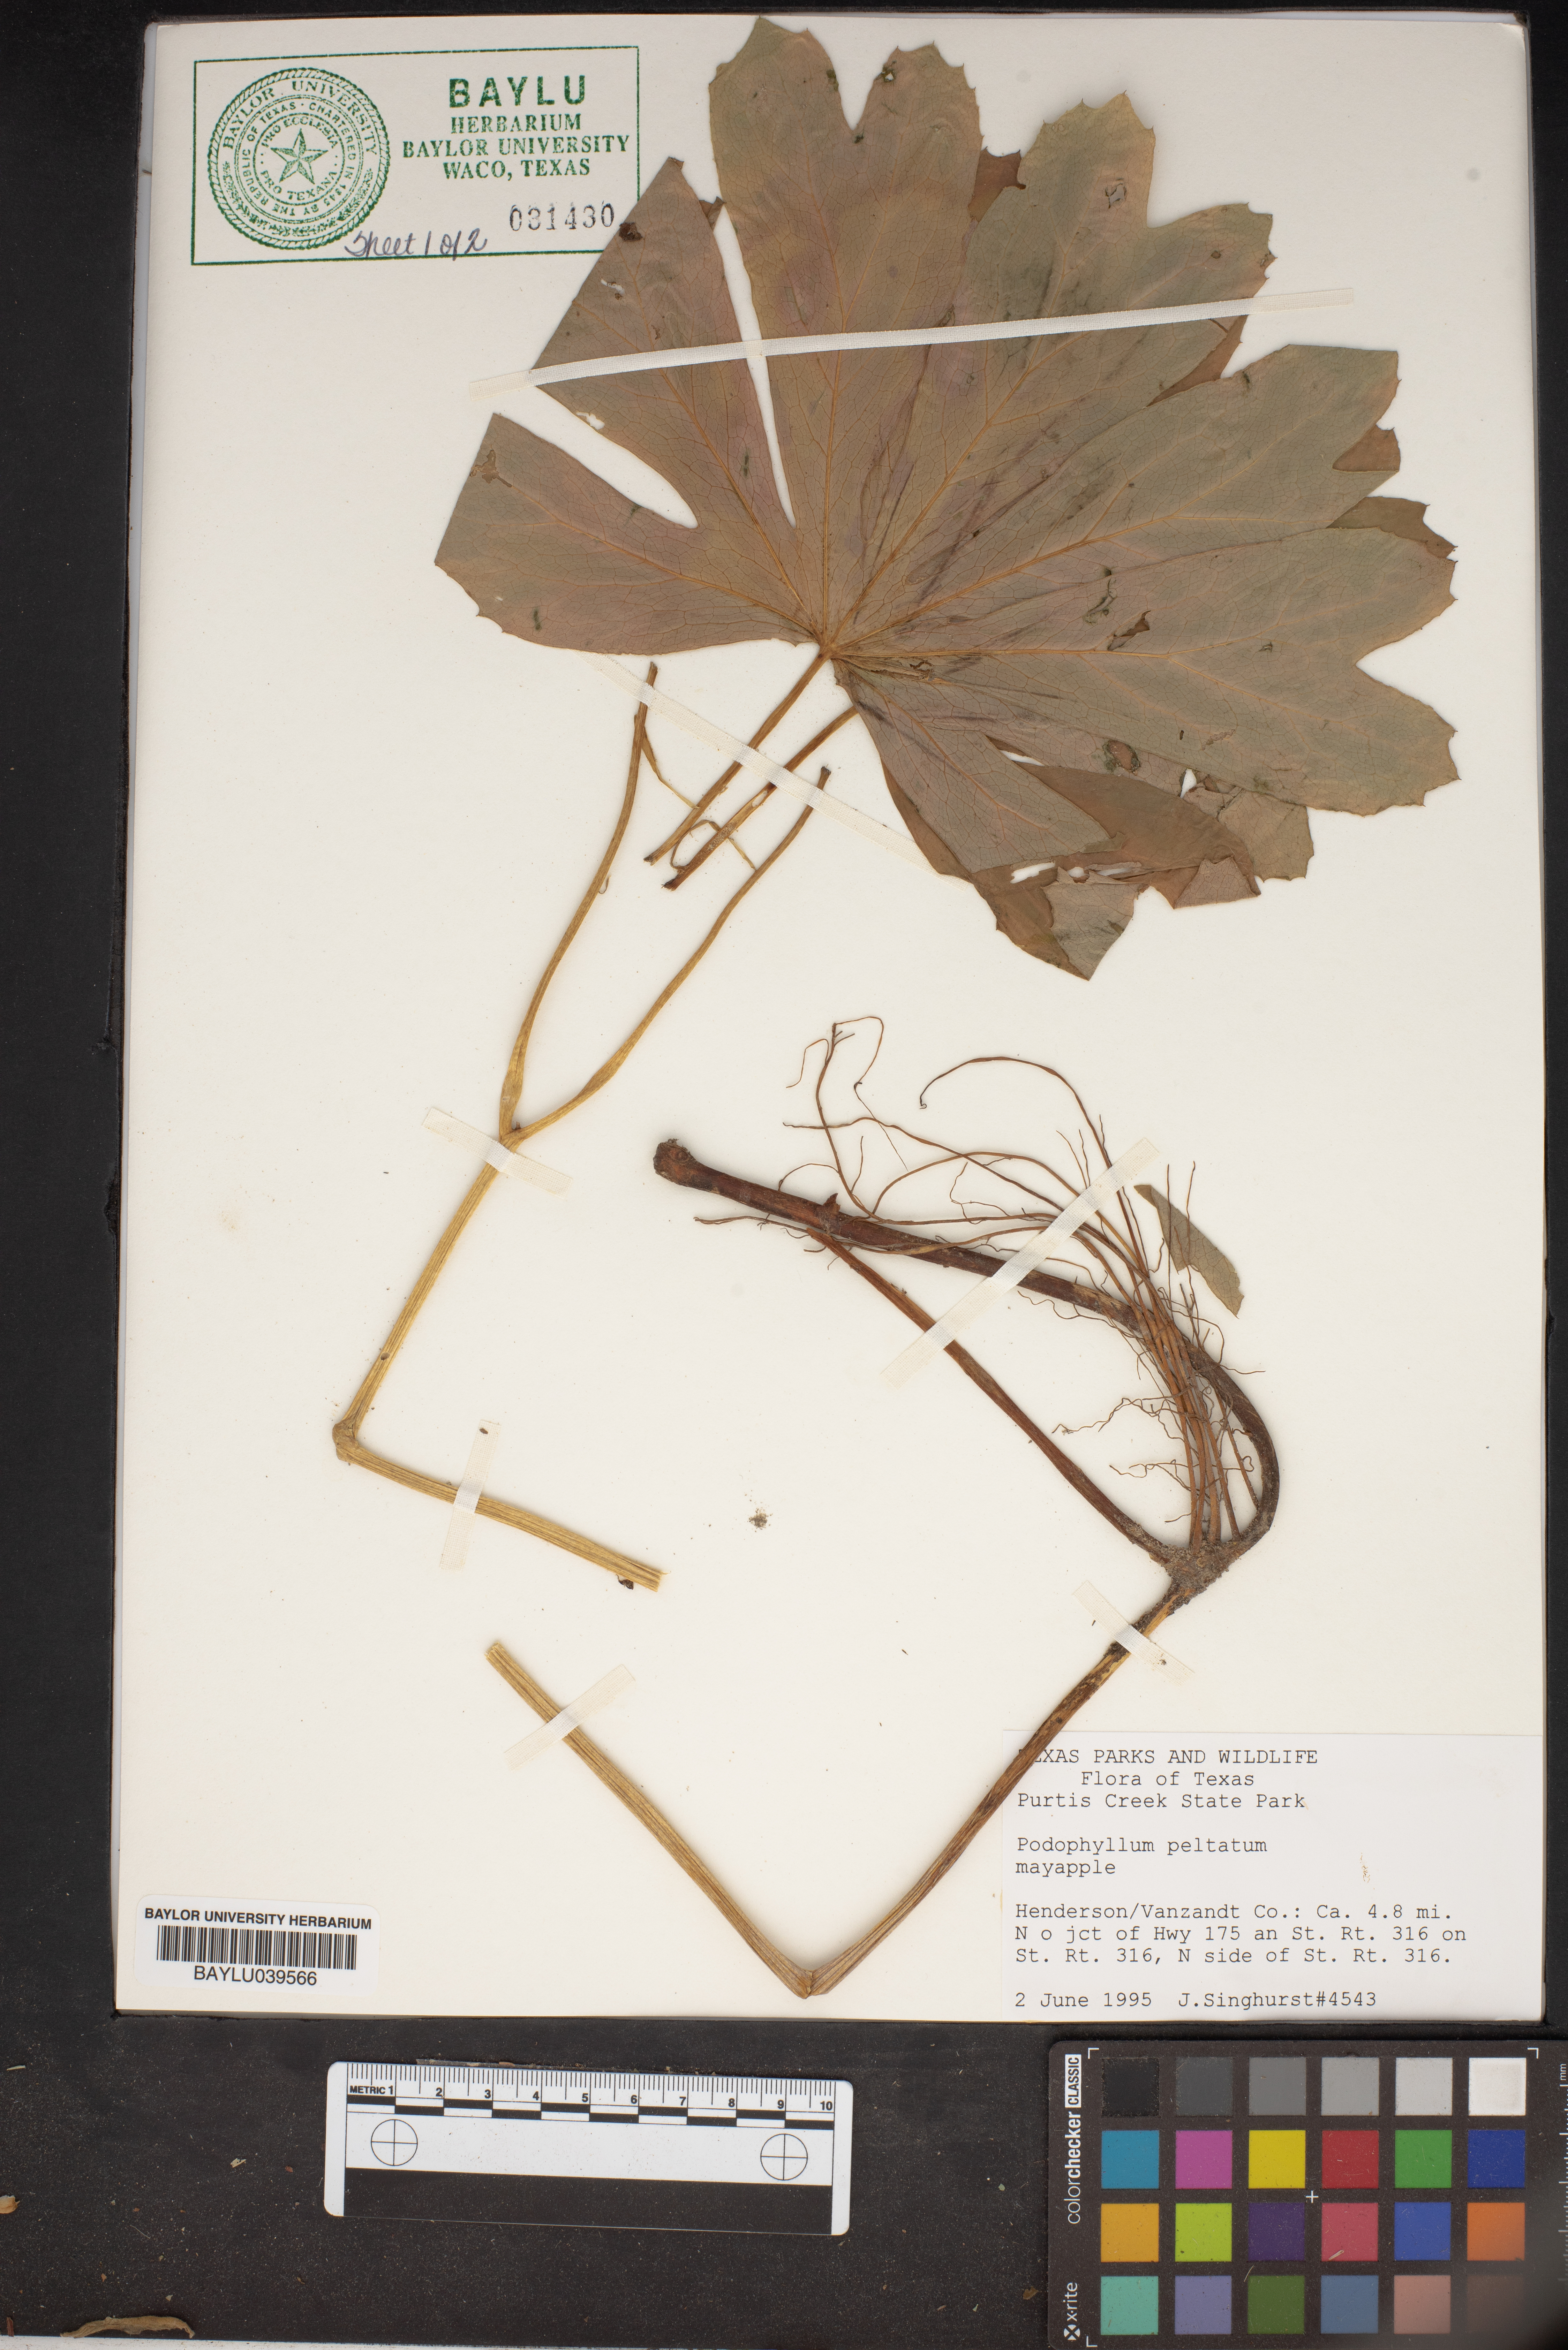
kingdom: Plantae
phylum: Tracheophyta
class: Magnoliopsida
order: Ranunculales
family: Berberidaceae
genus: Podophyllum
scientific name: Podophyllum peltatum
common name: Wild mandrake
